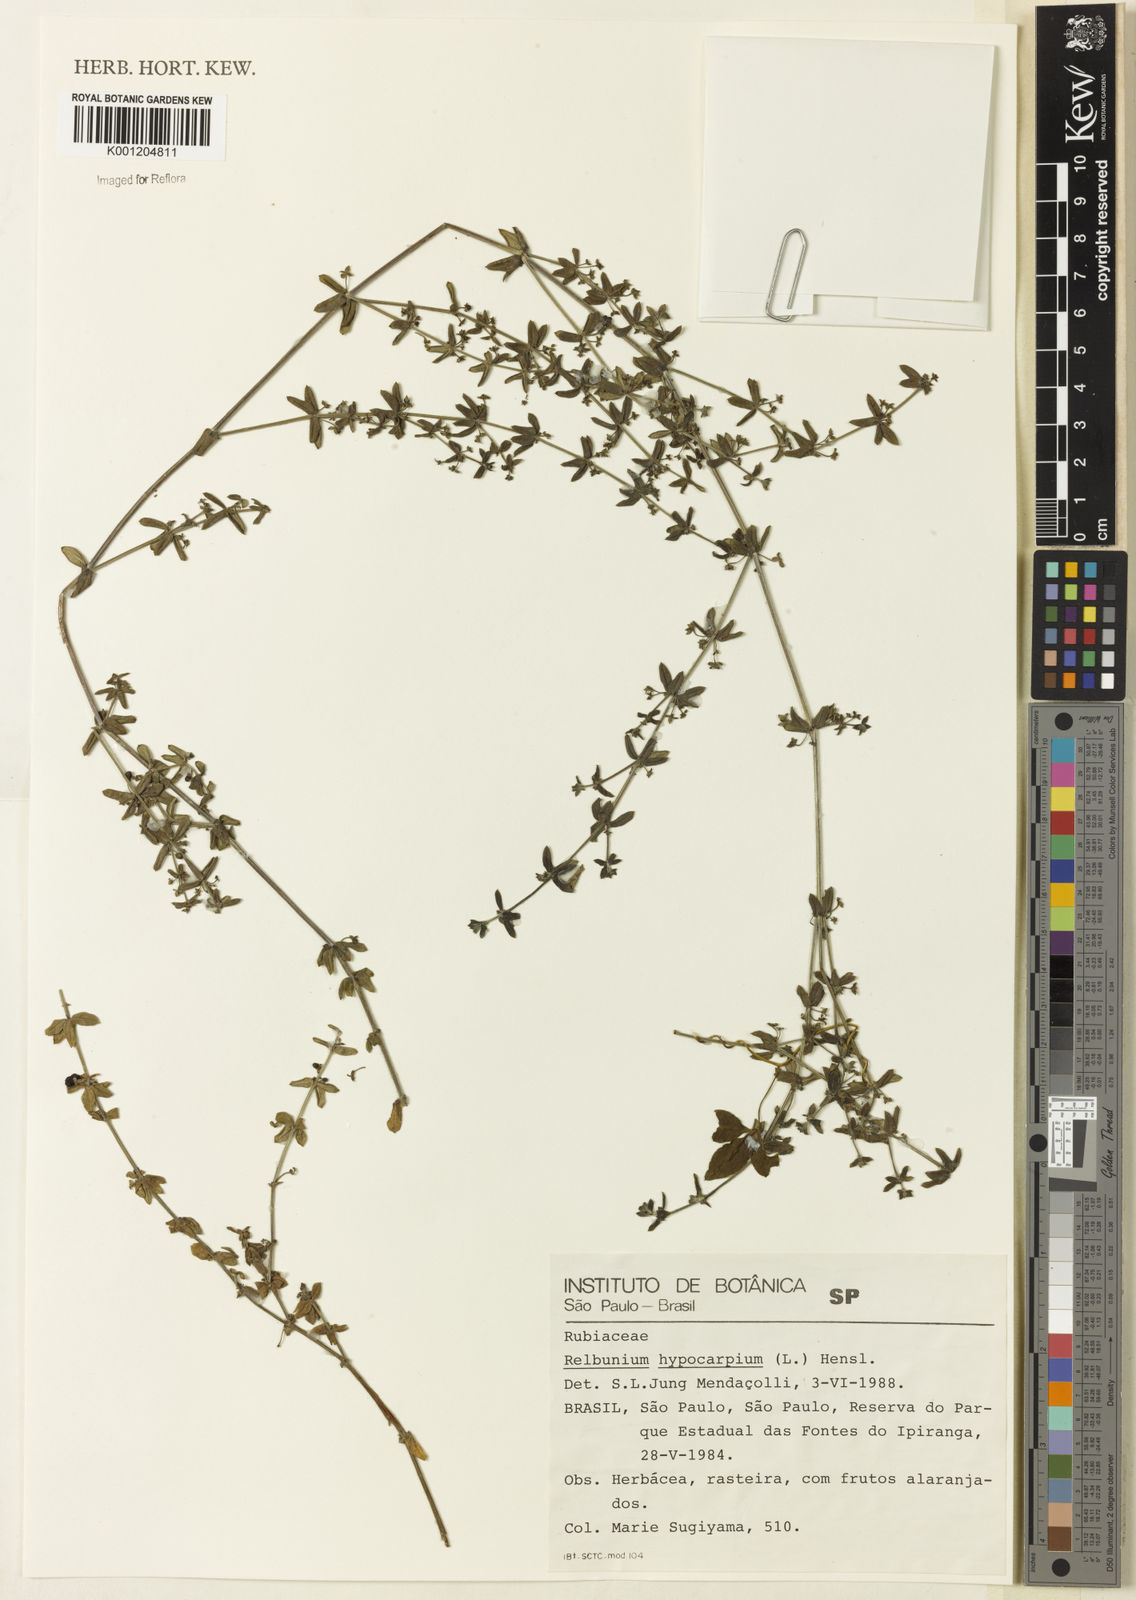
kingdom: Plantae
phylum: Tracheophyta
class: Magnoliopsida
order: Gentianales
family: Rubiaceae
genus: Galium
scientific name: Galium hypocarpium
